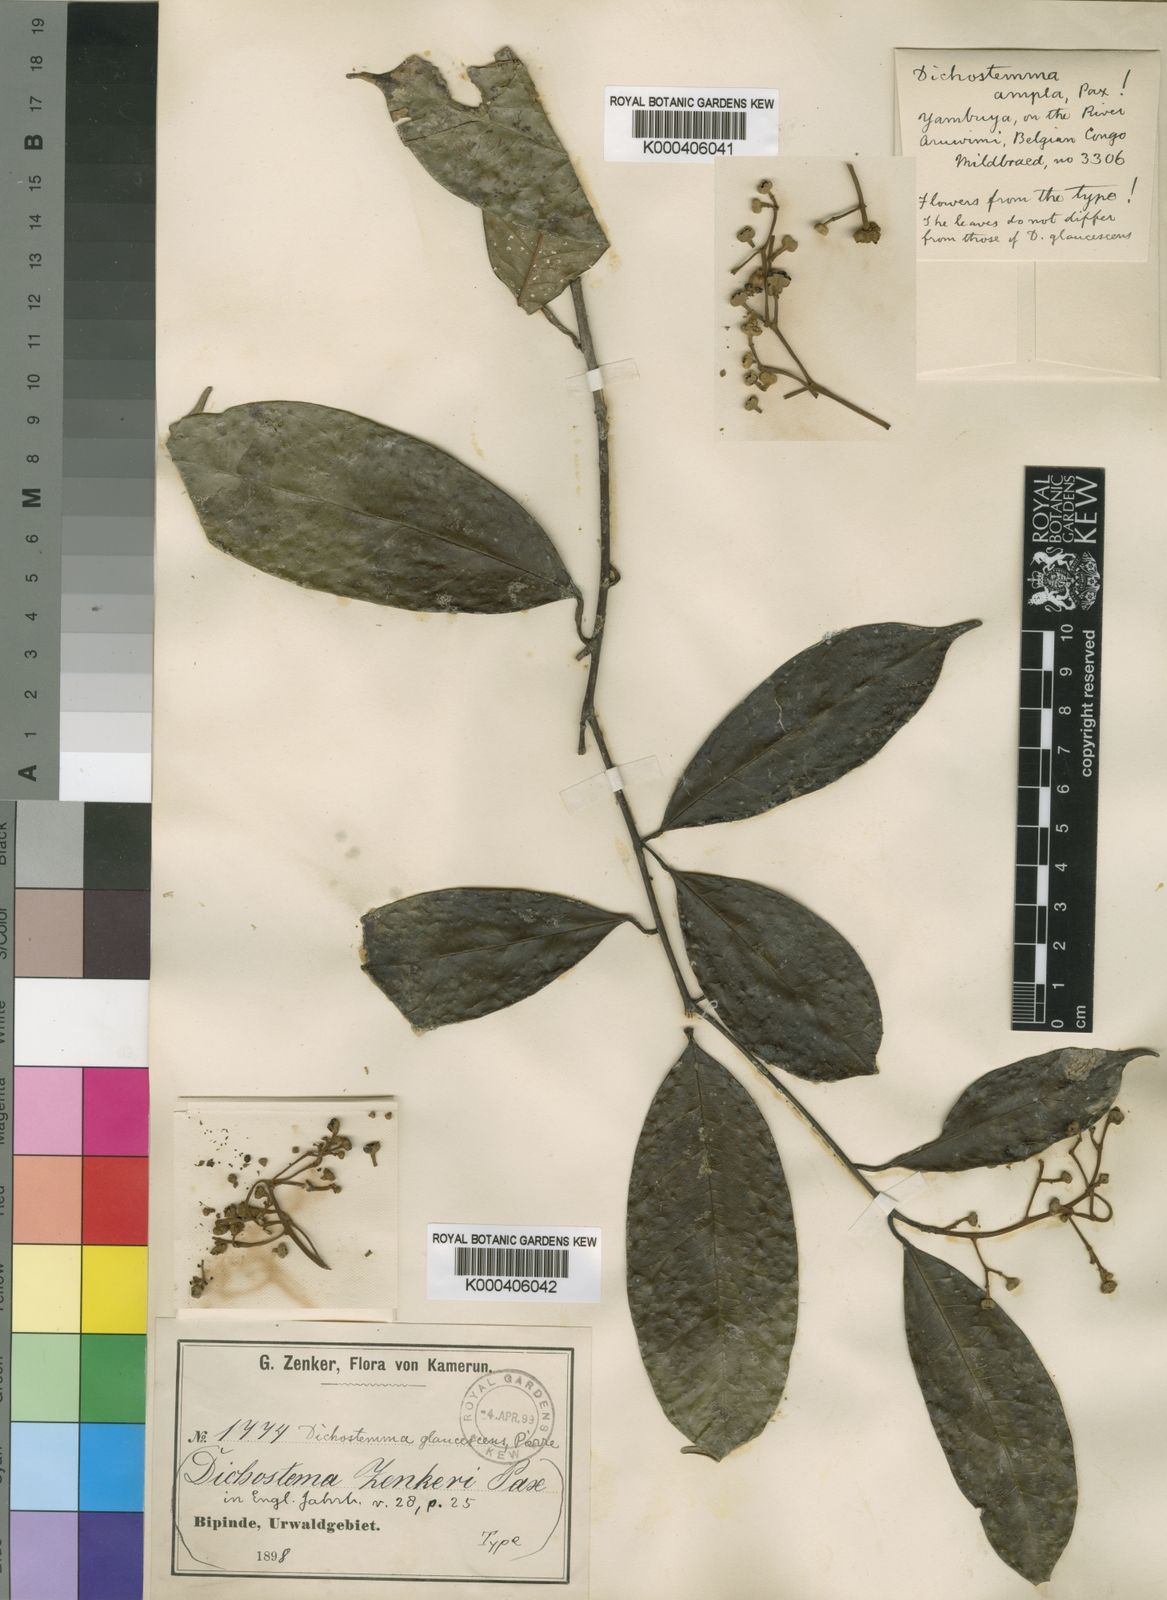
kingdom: Plantae
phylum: Tracheophyta
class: Magnoliopsida
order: Malpighiales
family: Euphorbiaceae
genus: Dichostemma
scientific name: Dichostemma glaucescens
